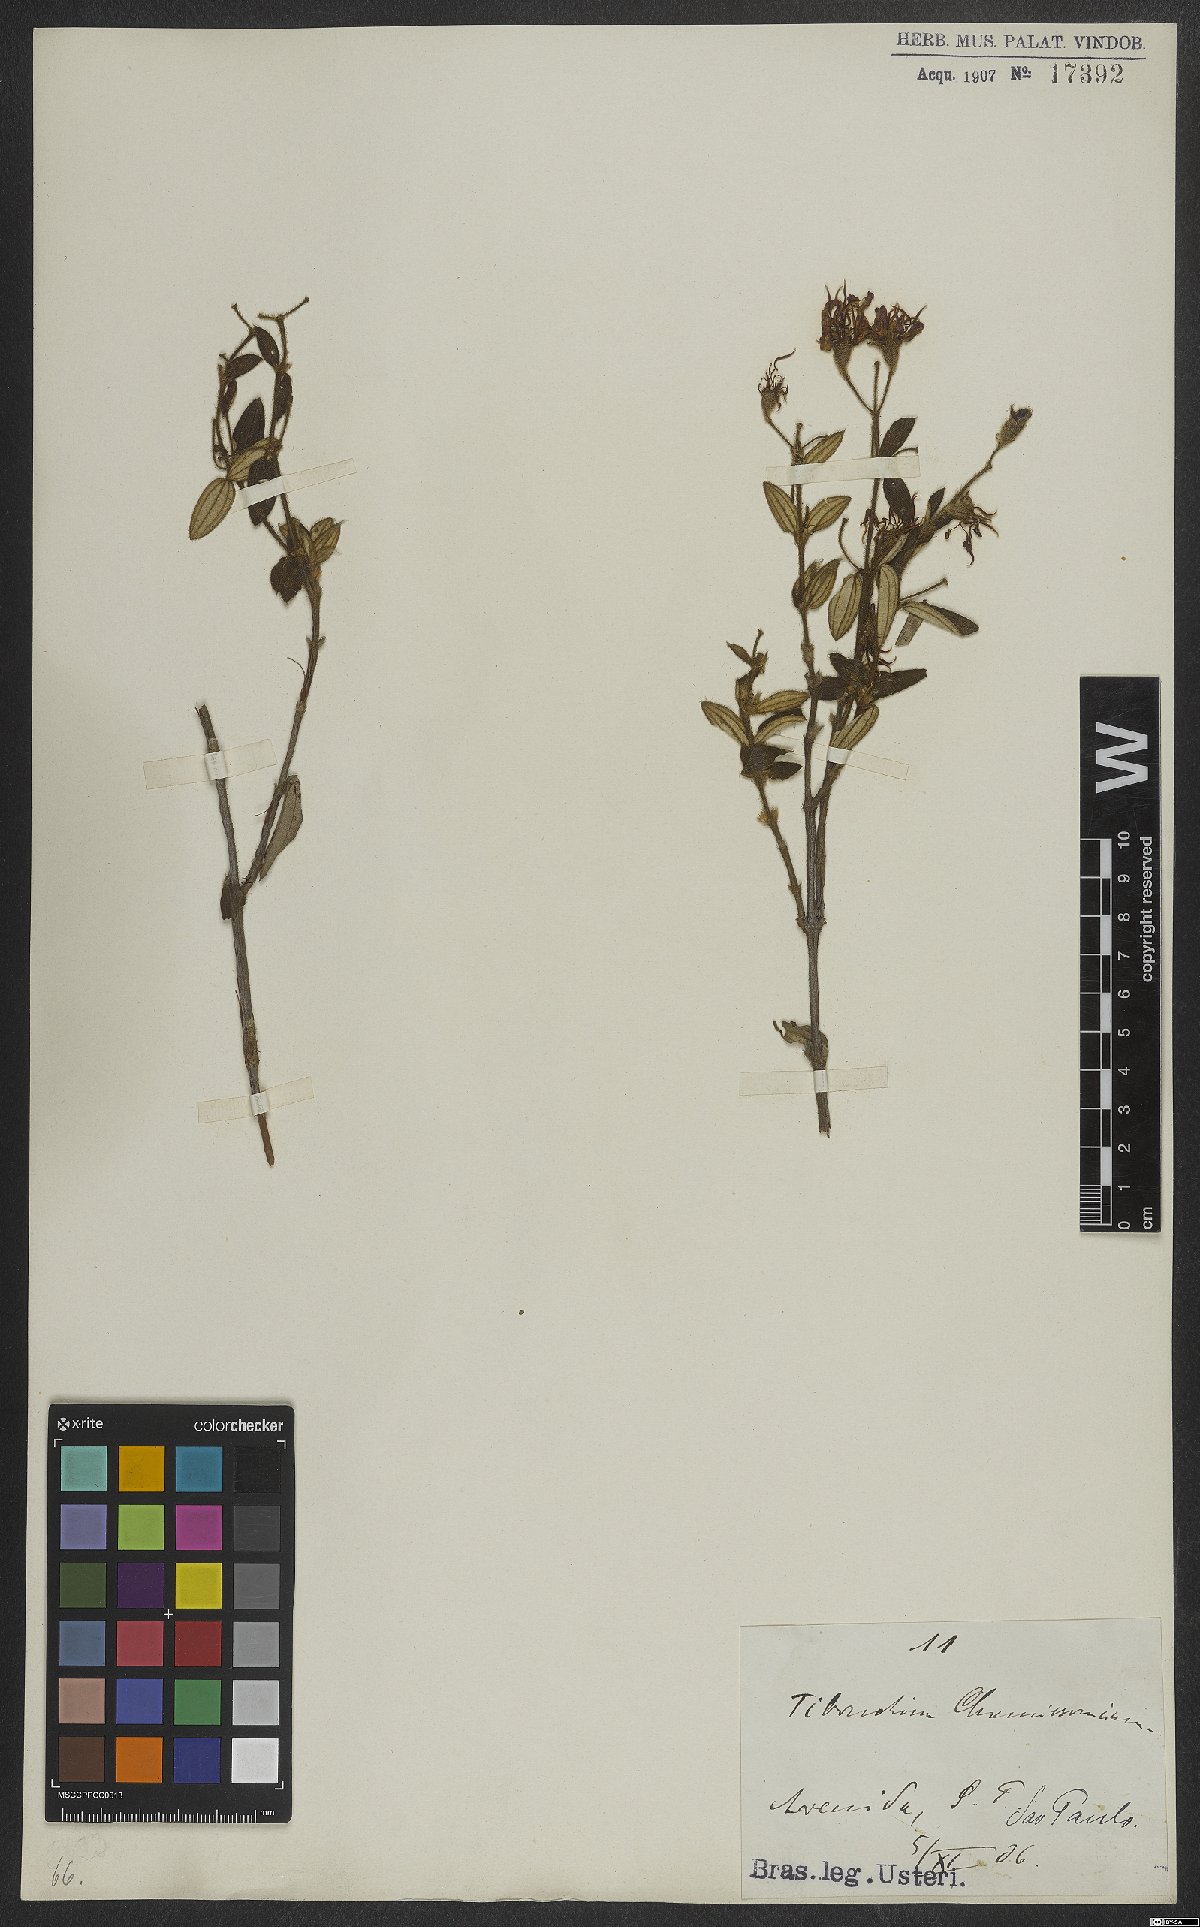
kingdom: Plantae
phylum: Tracheophyta
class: Magnoliopsida
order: Myrtales
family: Melastomataceae
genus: Pleroma
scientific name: Pleroma molle
